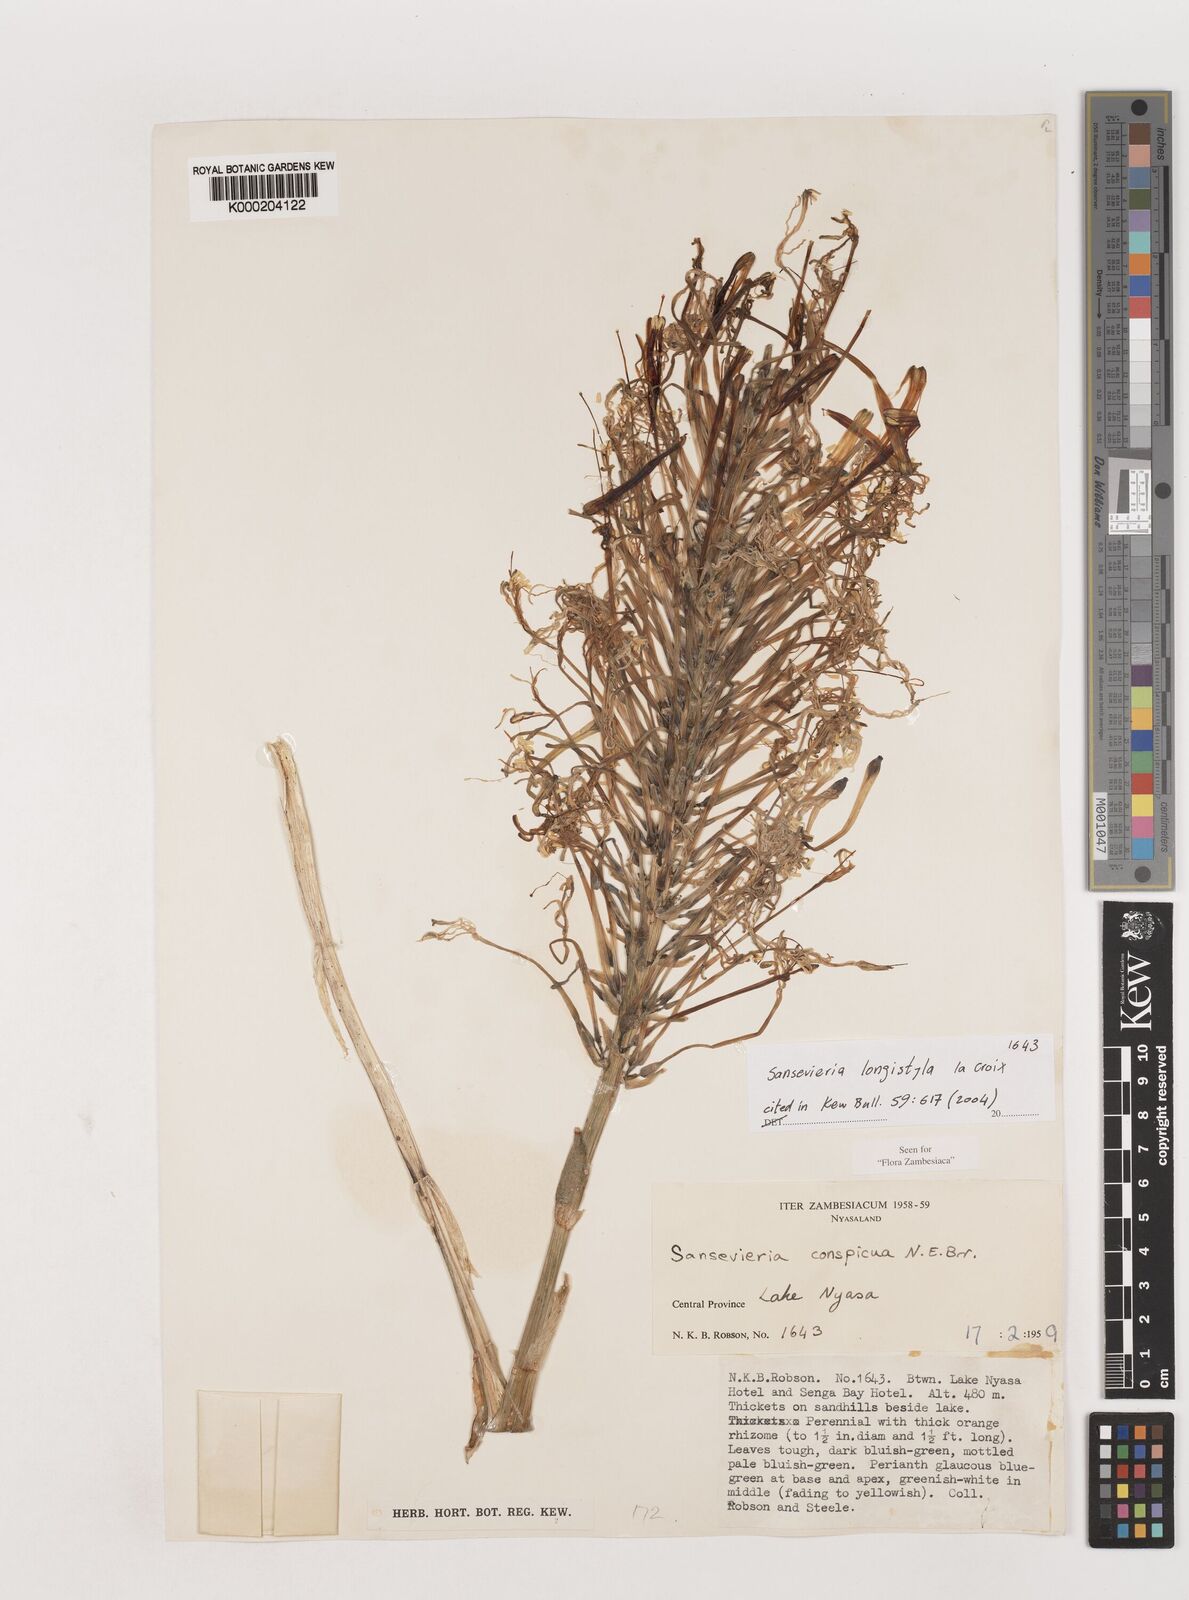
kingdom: Plantae
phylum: Tracheophyta
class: Liliopsida
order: Asparagales
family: Asparagaceae
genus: Dracaena
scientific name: Dracaena longistyla
